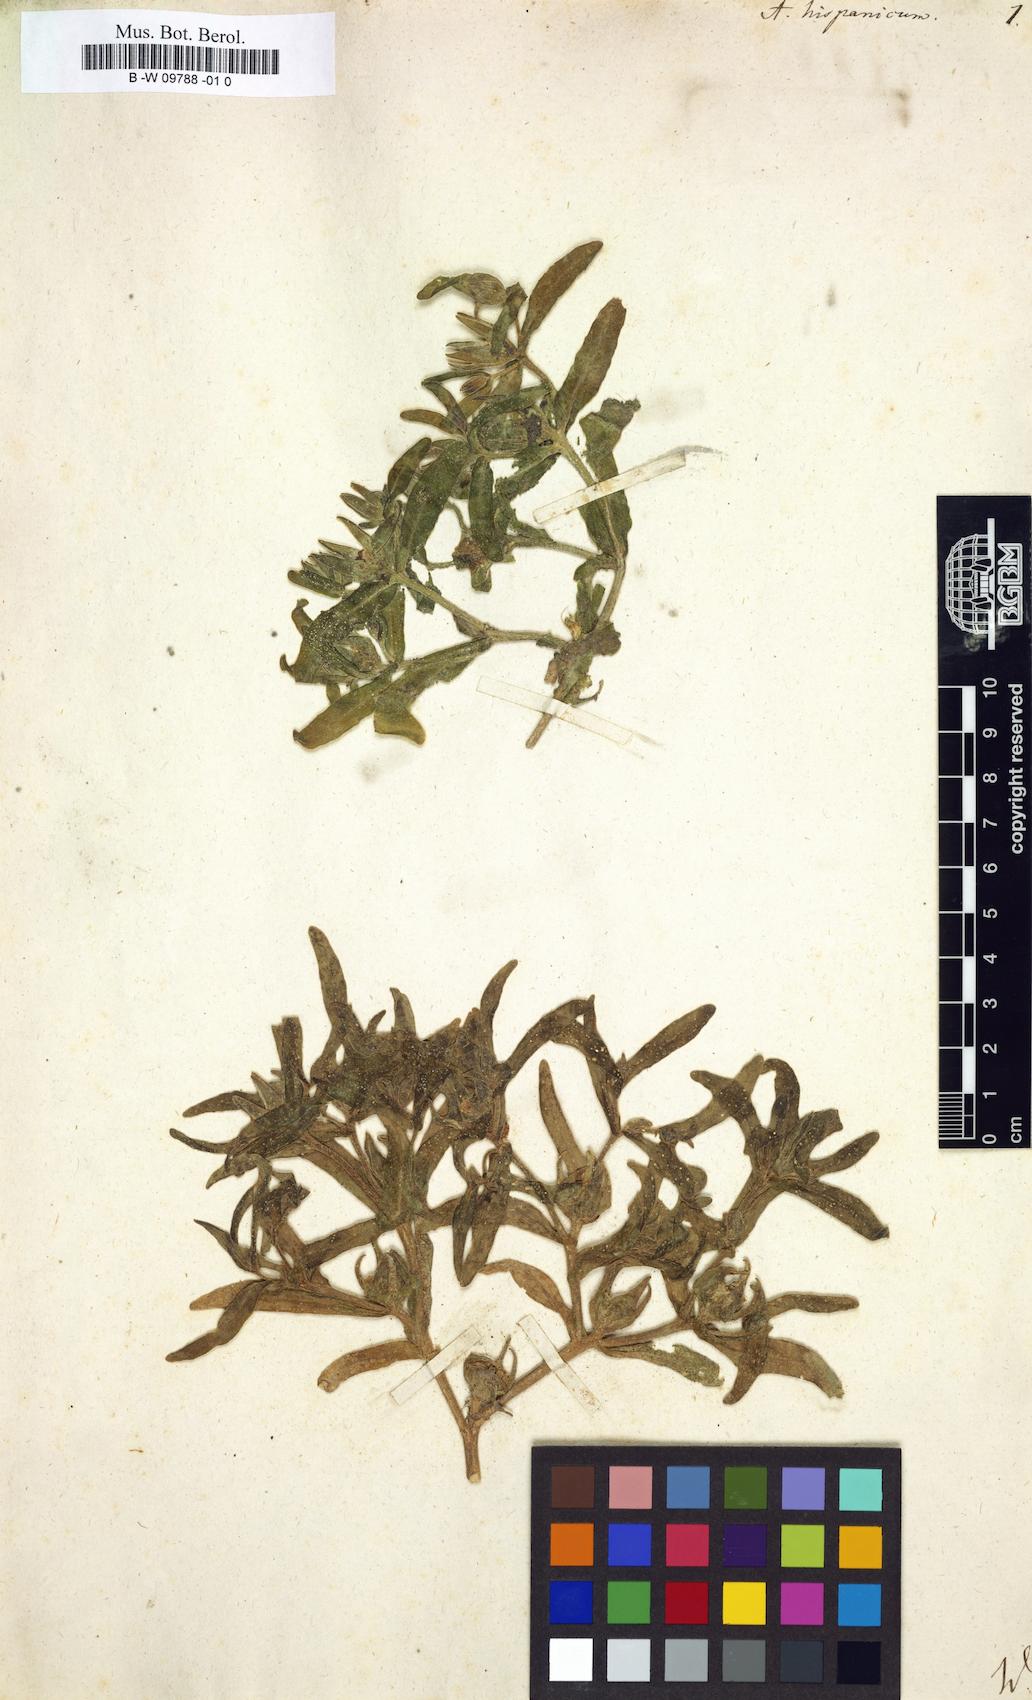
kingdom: Plantae
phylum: Tracheophyta
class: Magnoliopsida
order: Caryophyllales
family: Aizoaceae
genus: Aizoanthemopsis
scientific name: Aizoanthemopsis hispanica
